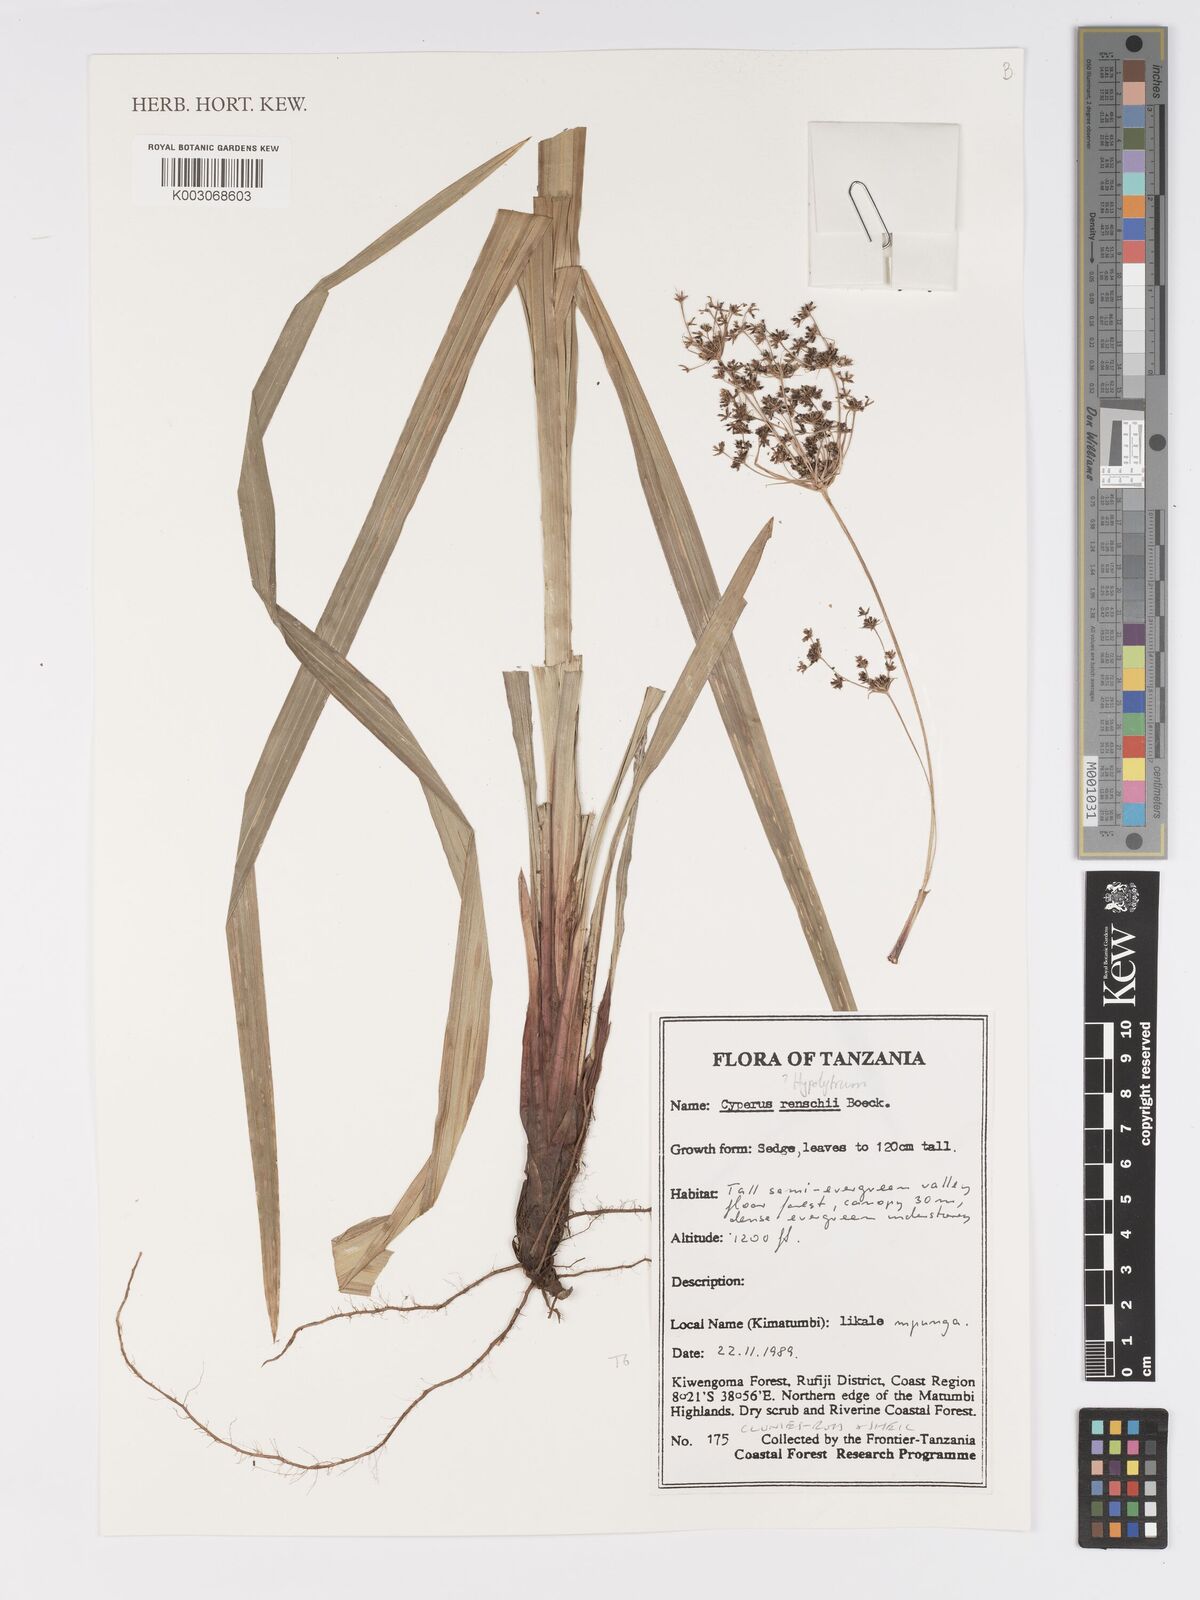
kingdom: Plantae
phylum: Tracheophyta
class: Liliopsida
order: Poales
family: Cyperaceae
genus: Cyperus
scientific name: Cyperus renschii
